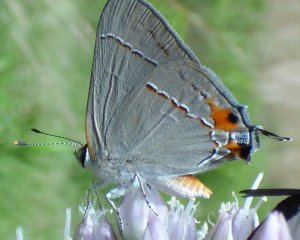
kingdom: Animalia
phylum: Arthropoda
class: Insecta
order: Lepidoptera
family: Lycaenidae
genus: Strymon
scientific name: Strymon melinus
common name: Gray Hairstreak
